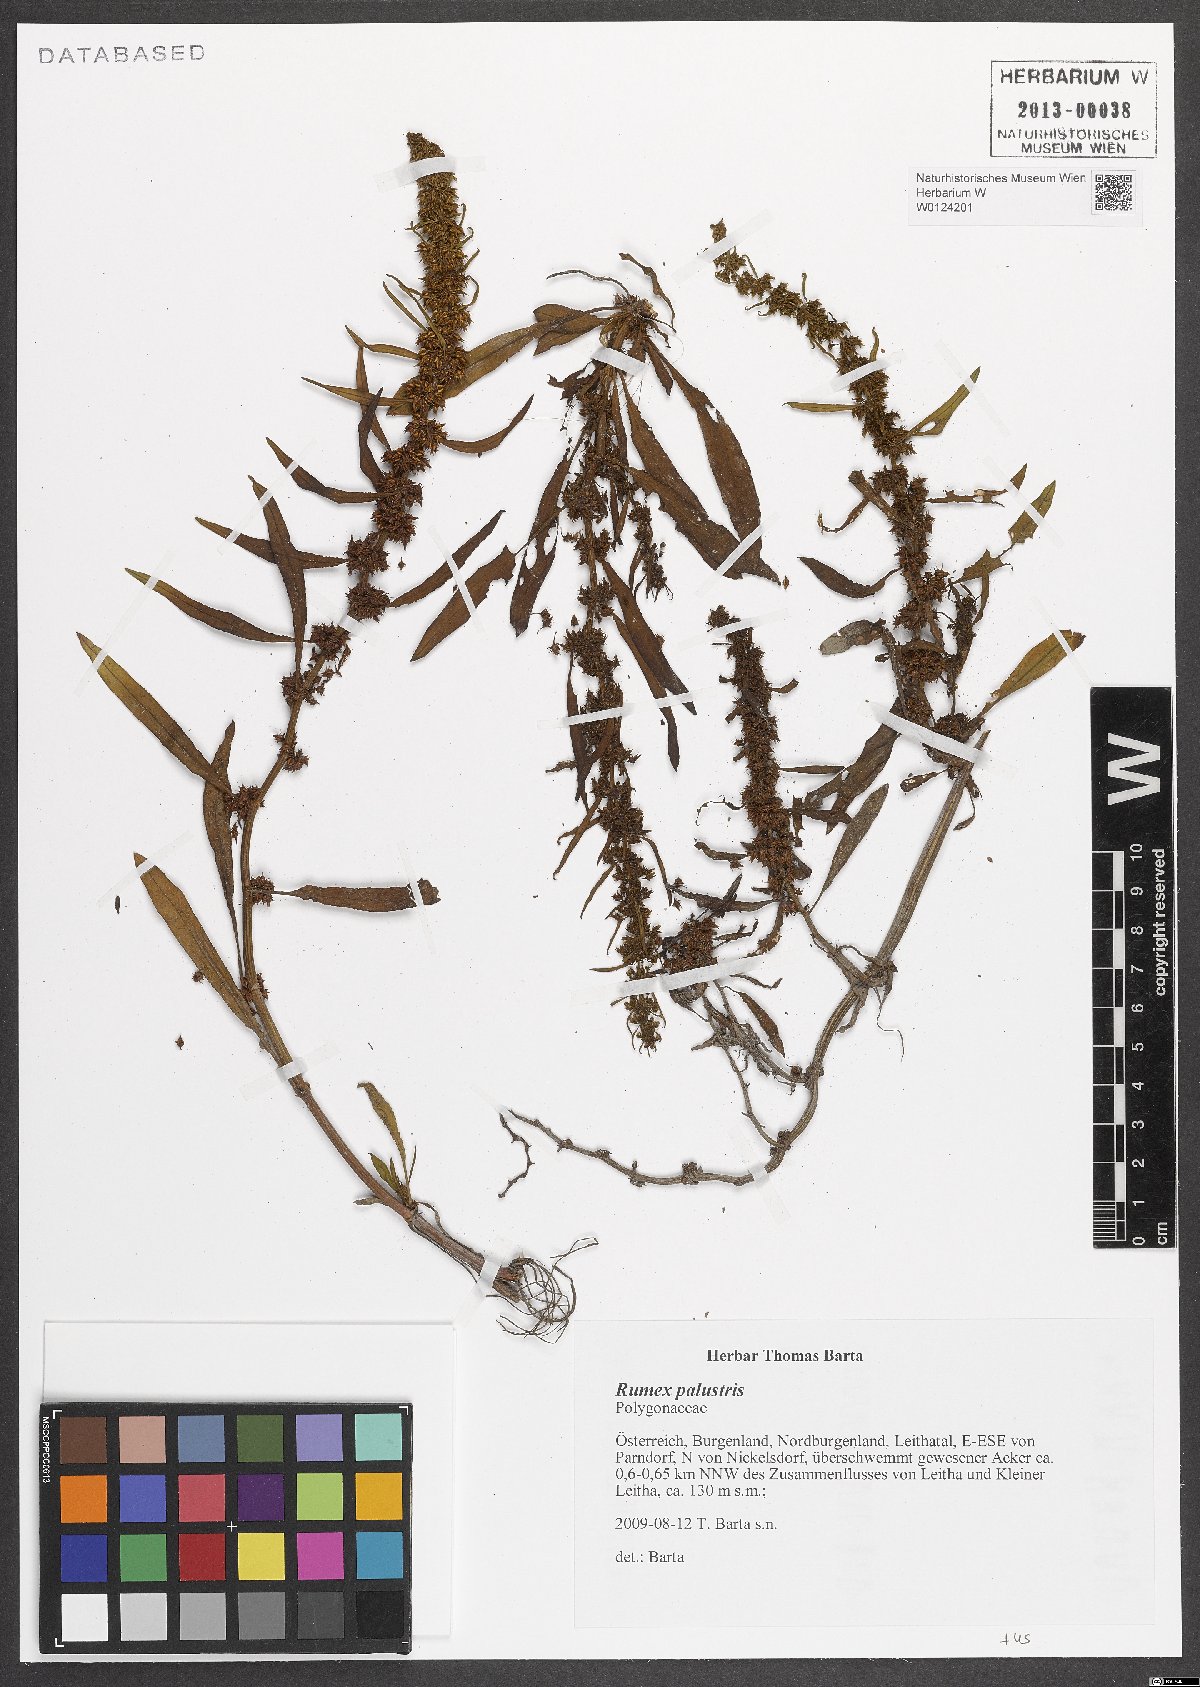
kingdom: Plantae
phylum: Tracheophyta
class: Magnoliopsida
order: Caryophyllales
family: Polygonaceae
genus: Rumex
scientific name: Rumex palustris
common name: Marsh dock
